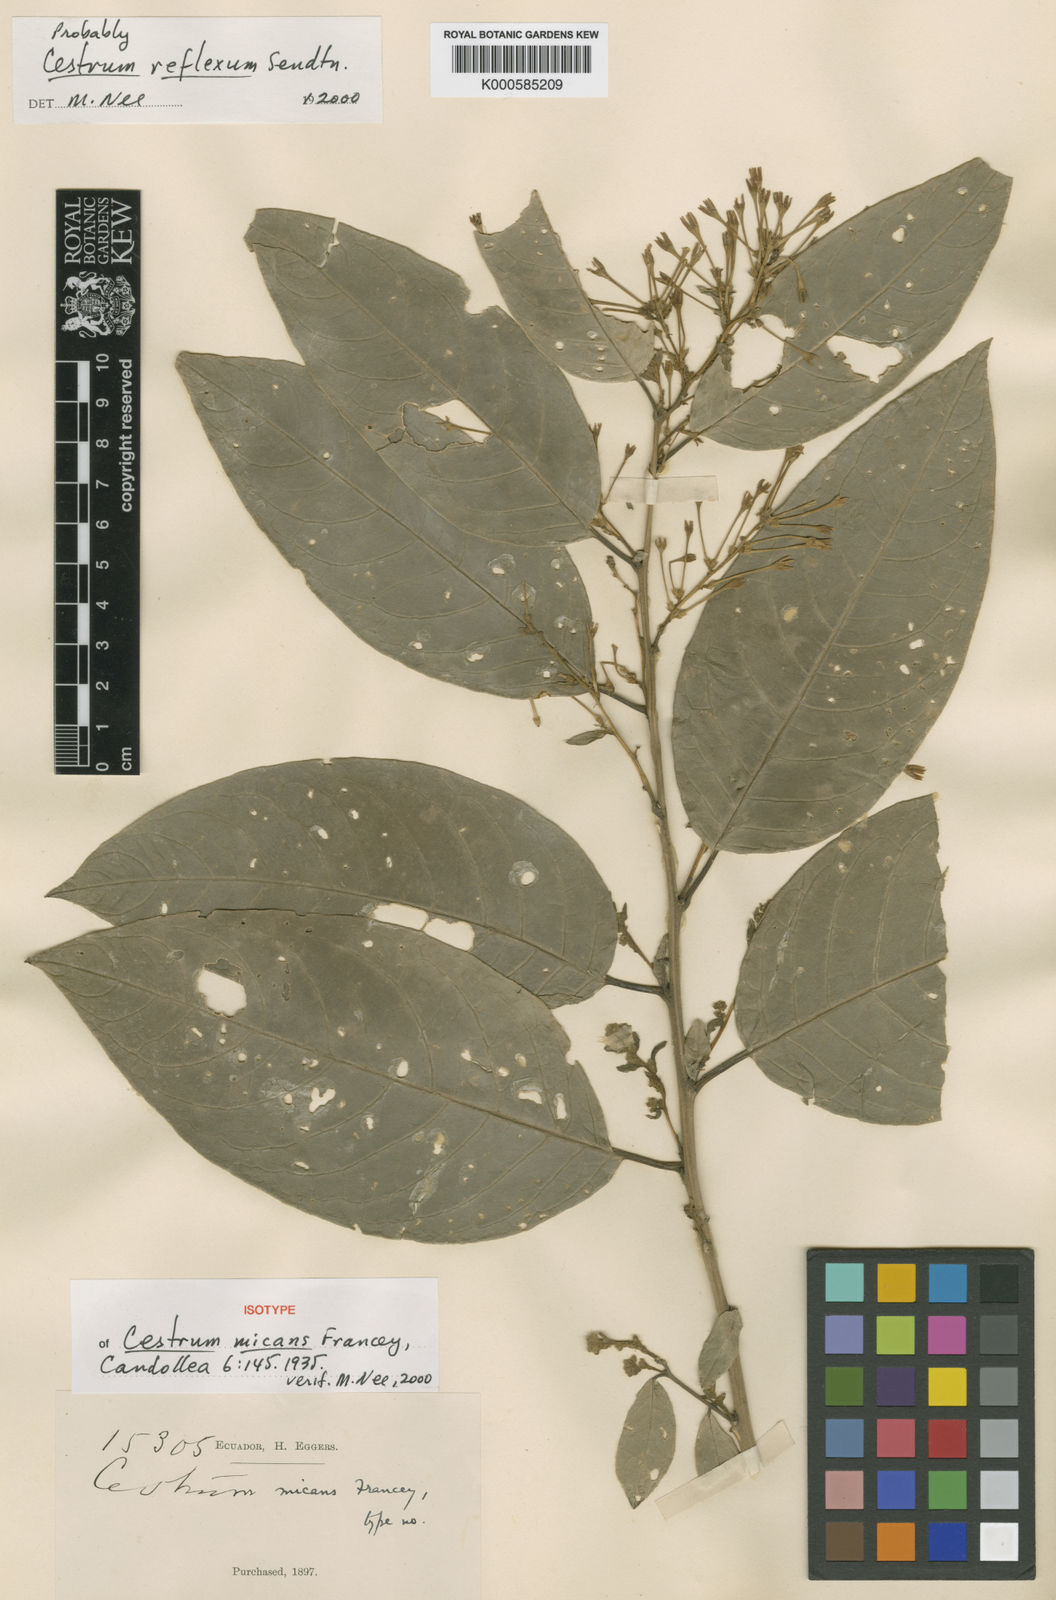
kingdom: Plantae
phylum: Tracheophyta
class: Magnoliopsida
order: Solanales
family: Solanaceae
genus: Cestrum
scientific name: Cestrum micans
